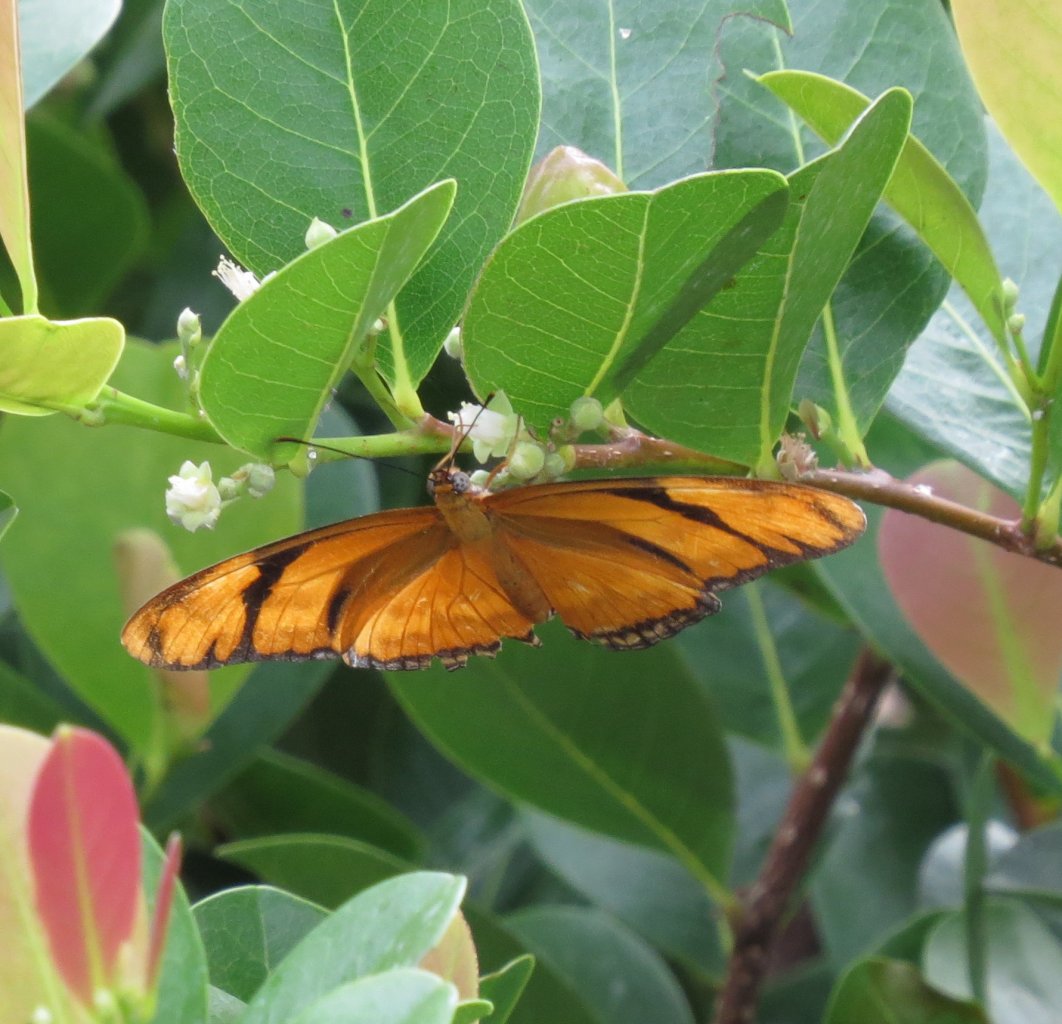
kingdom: Animalia
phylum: Arthropoda
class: Insecta
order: Lepidoptera
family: Nymphalidae
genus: Dryas
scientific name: Dryas iulia
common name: Julia
